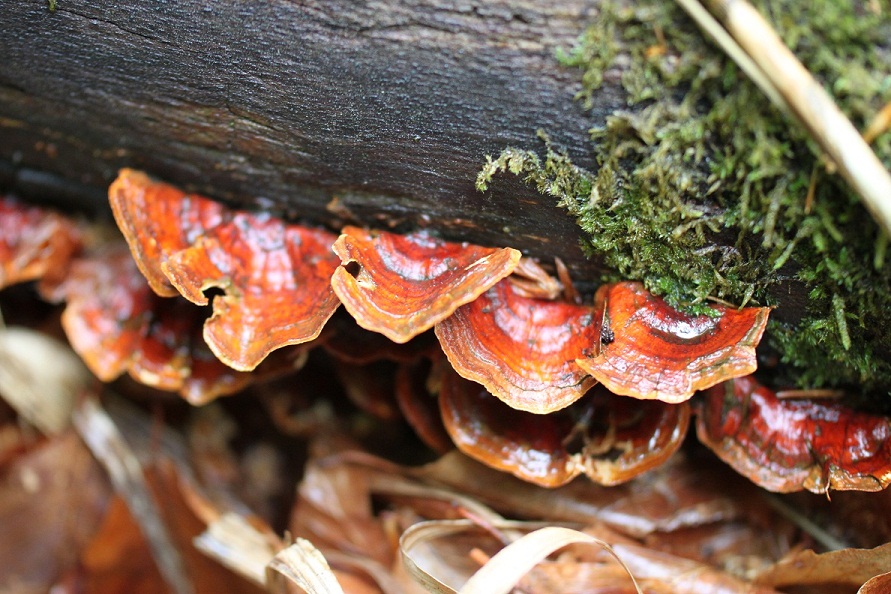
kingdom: Fungi
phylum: Basidiomycota
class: Agaricomycetes
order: Russulales
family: Stereaceae
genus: Stereum
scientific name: Stereum subtomentosum
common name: smuk lædersvamp
